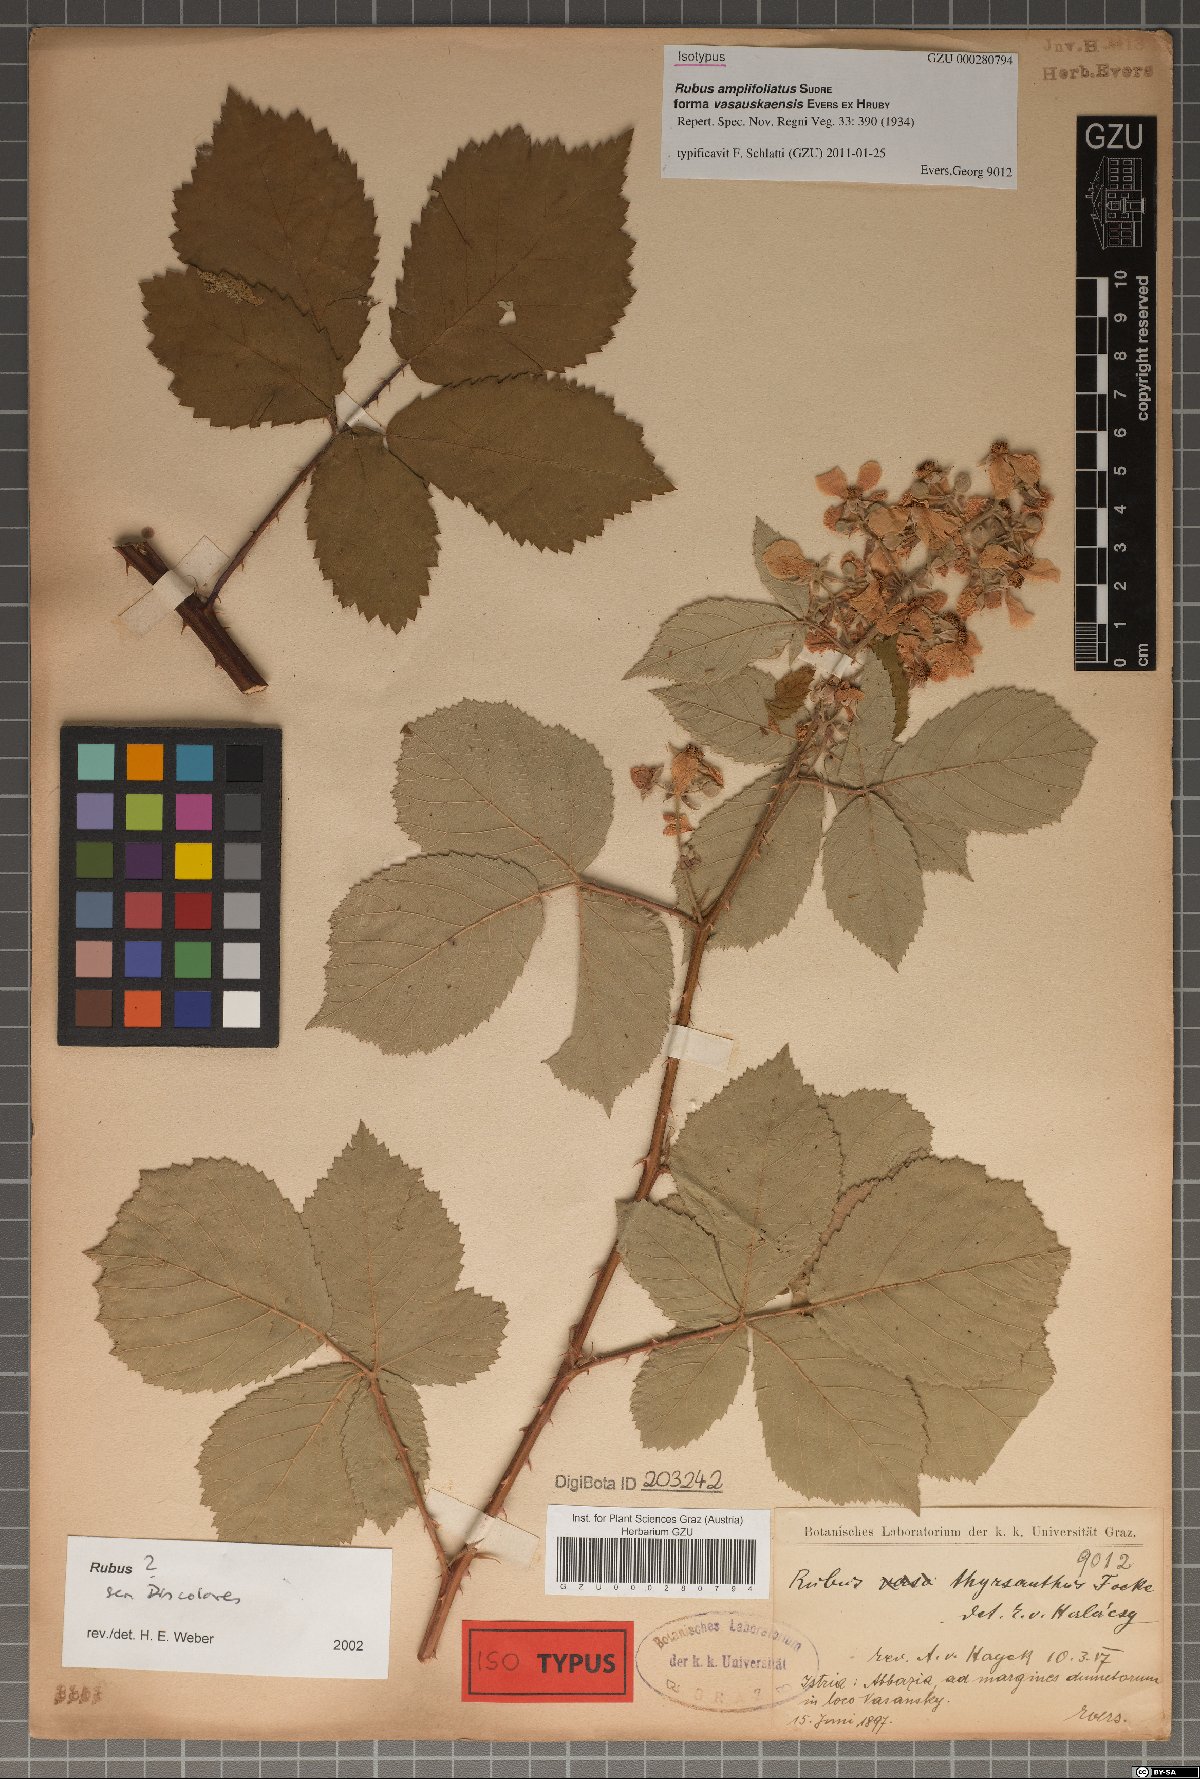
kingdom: Plantae
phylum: Tracheophyta
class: Magnoliopsida
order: Rosales
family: Rosaceae
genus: Rubus
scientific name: Rubus amplifoliatus
